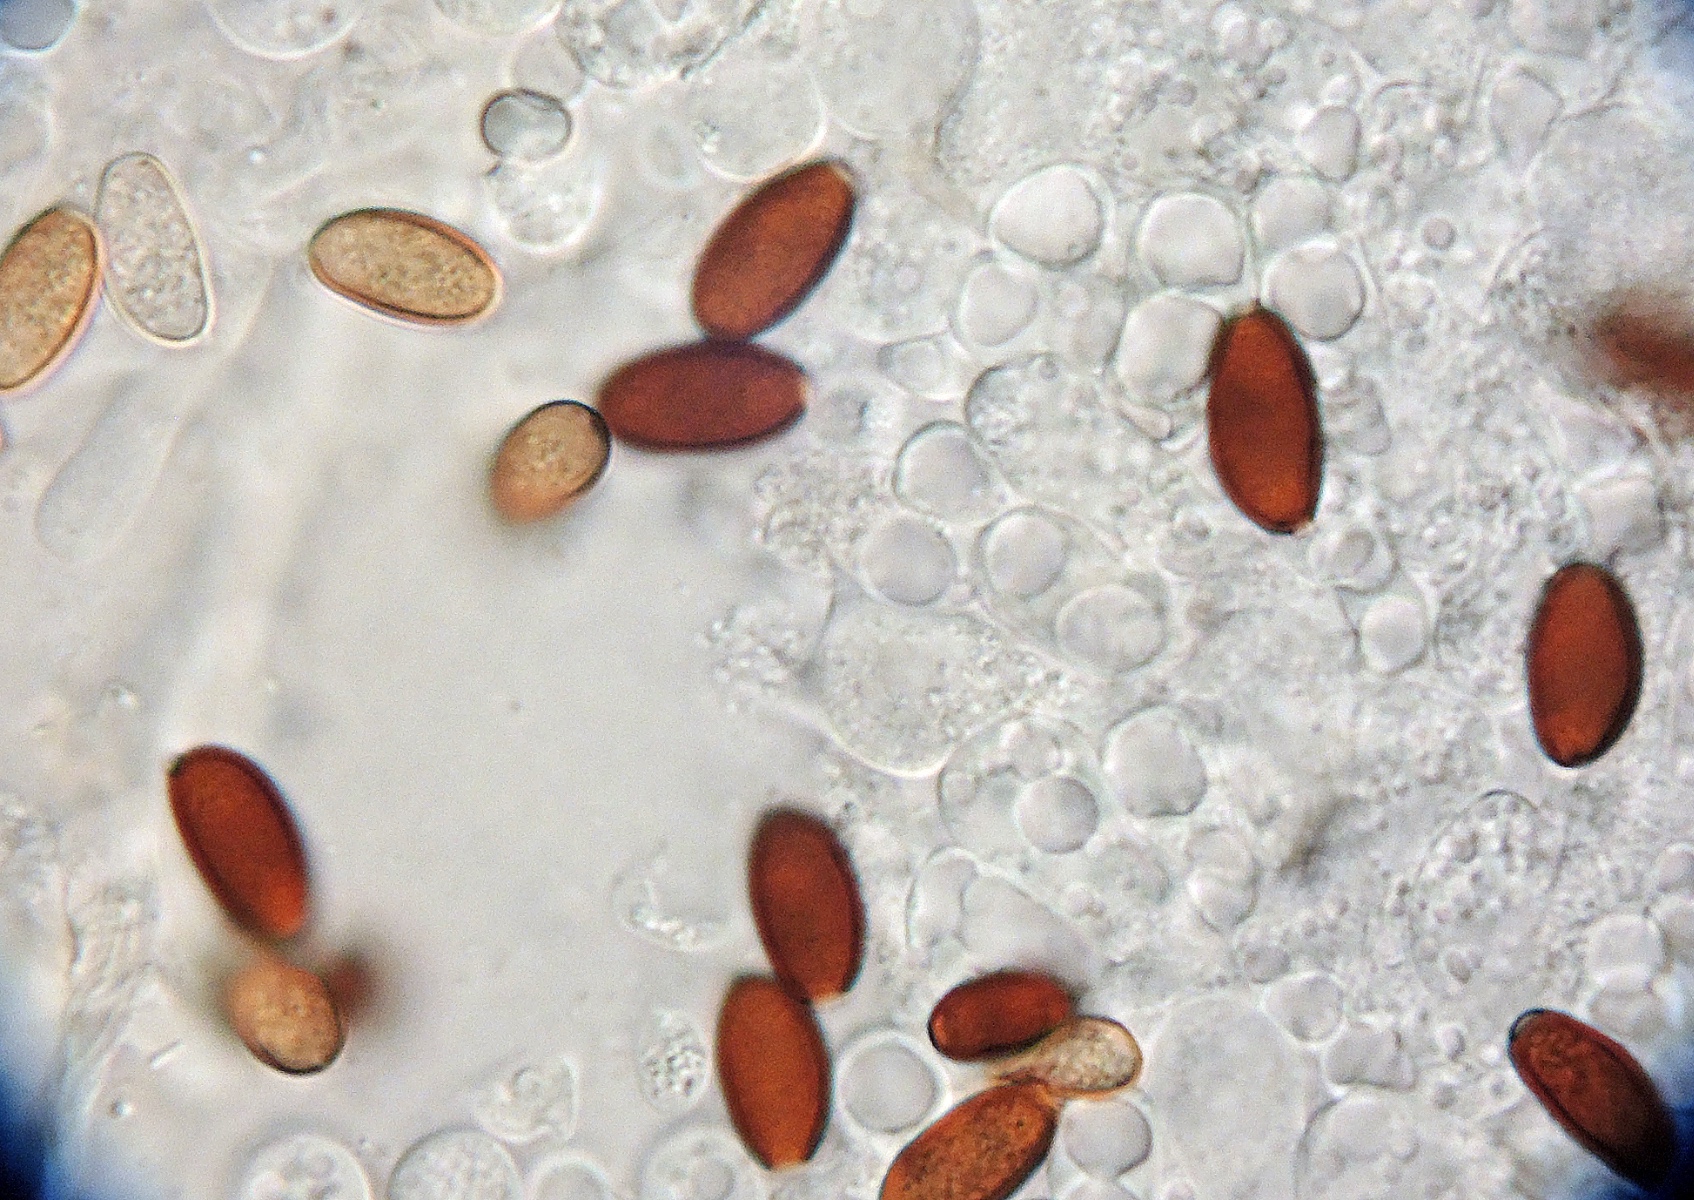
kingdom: Fungi
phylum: Basidiomycota
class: Agaricomycetes
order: Agaricales
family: Psathyrellaceae
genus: Psathyrella
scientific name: Psathyrella corrugis
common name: rødægget mørkhat
